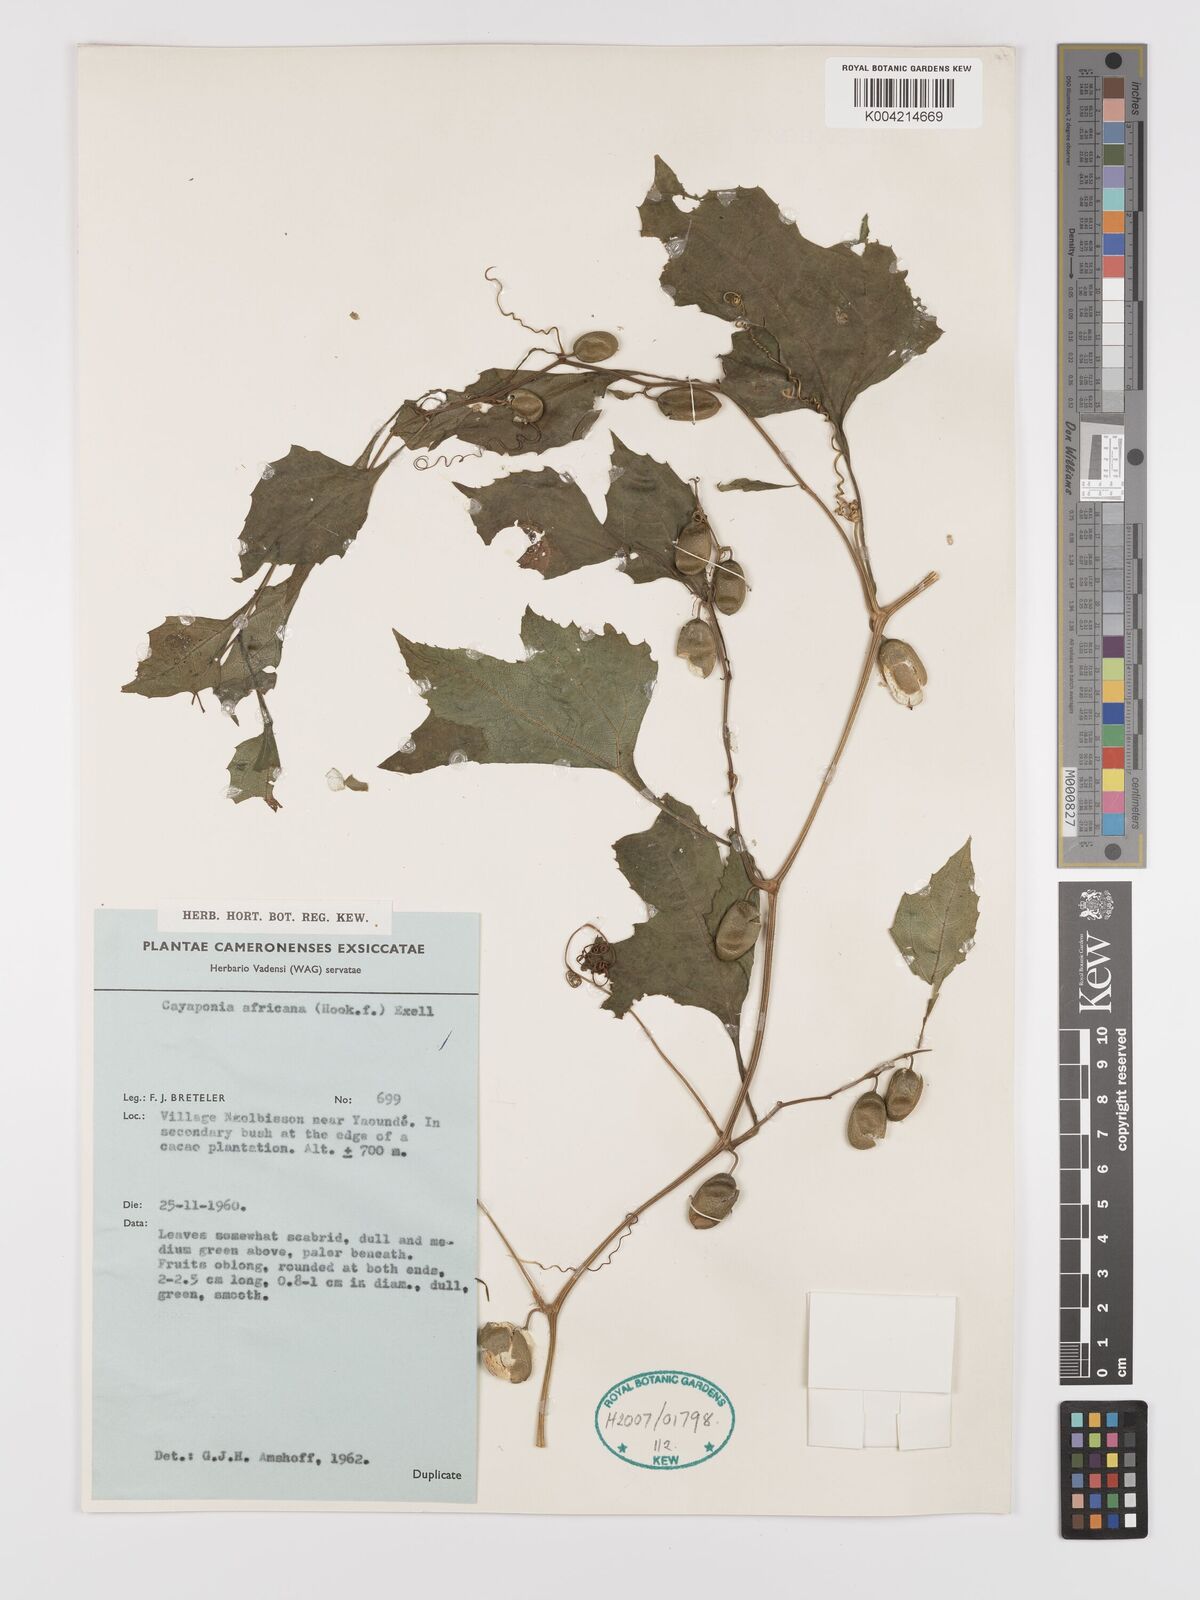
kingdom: Plantae
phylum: Tracheophyta
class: Magnoliopsida
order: Cucurbitales
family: Cucurbitaceae
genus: Cayaponia
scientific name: Cayaponia africana
